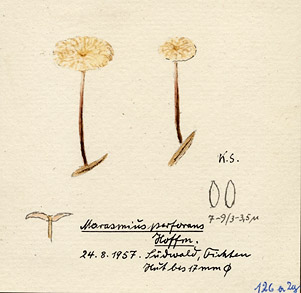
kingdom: Fungi
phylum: Basidiomycota
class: Agaricomycetes
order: Agaricales
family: Omphalotaceae
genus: Paragymnopus
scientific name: Paragymnopus perforans
